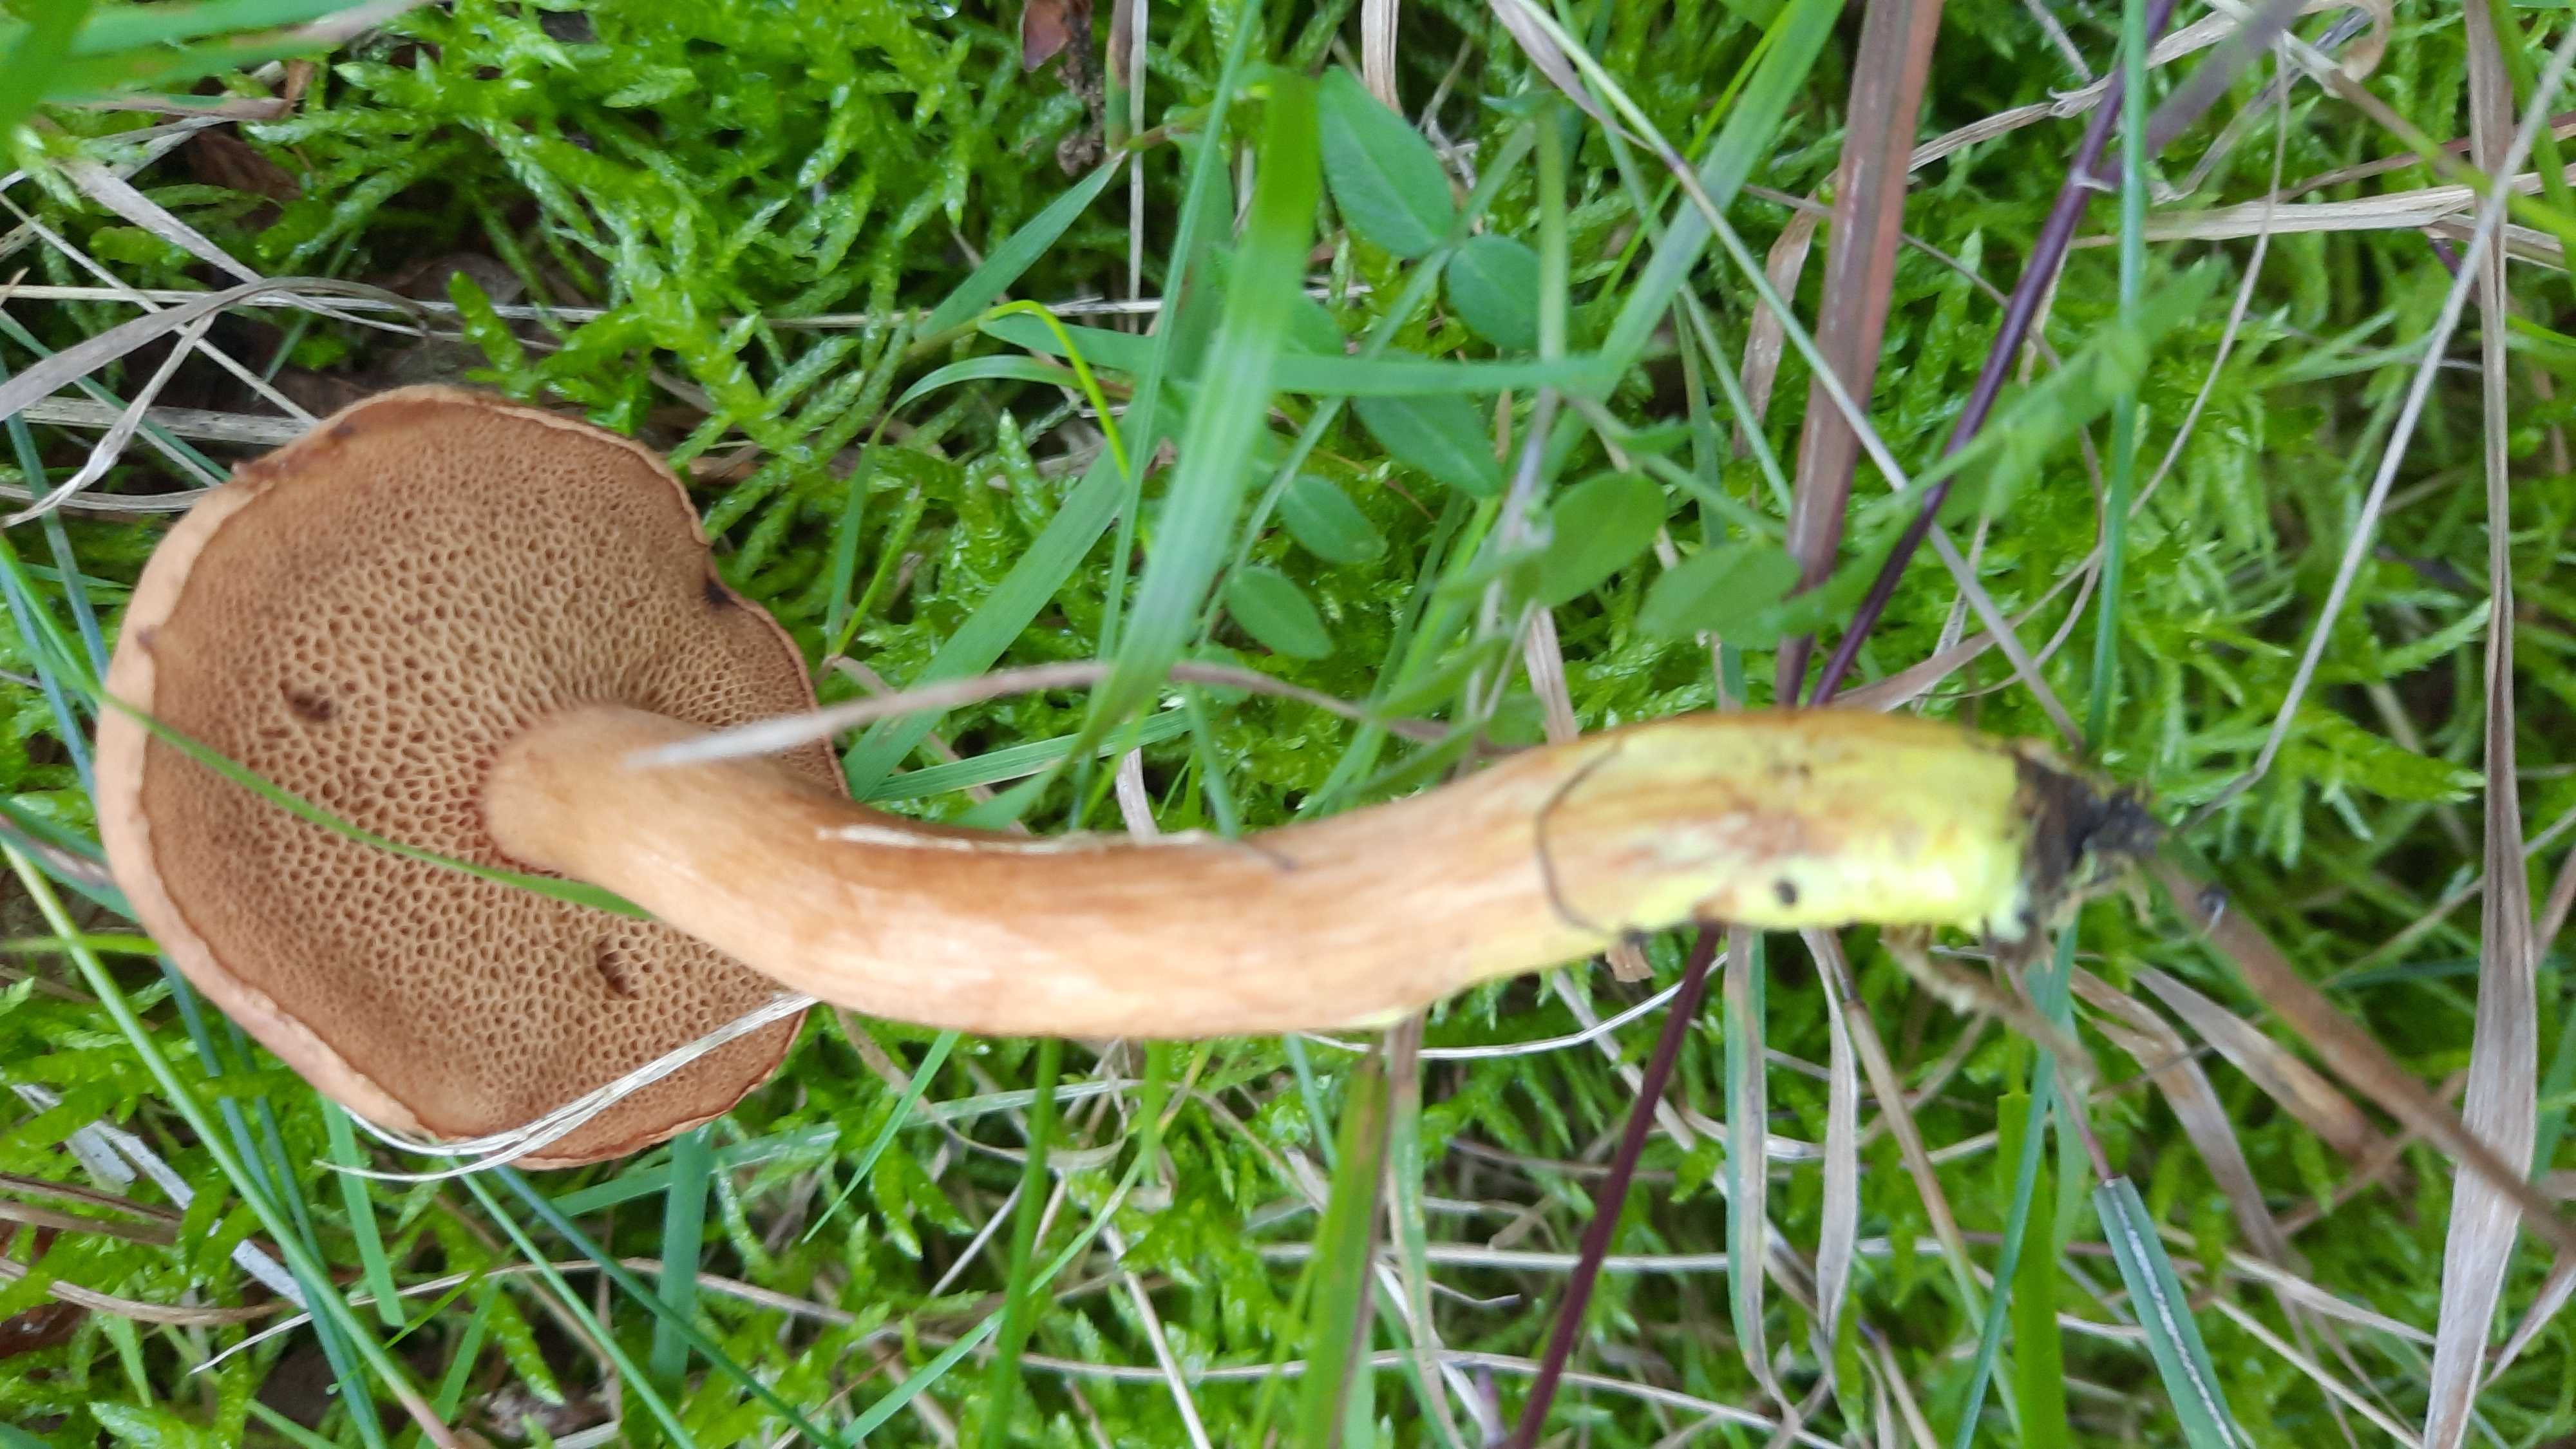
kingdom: Fungi
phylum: Basidiomycota
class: Agaricomycetes
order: Boletales
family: Boletaceae
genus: Chalciporus
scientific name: Chalciporus piperatus
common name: peberrørhat
